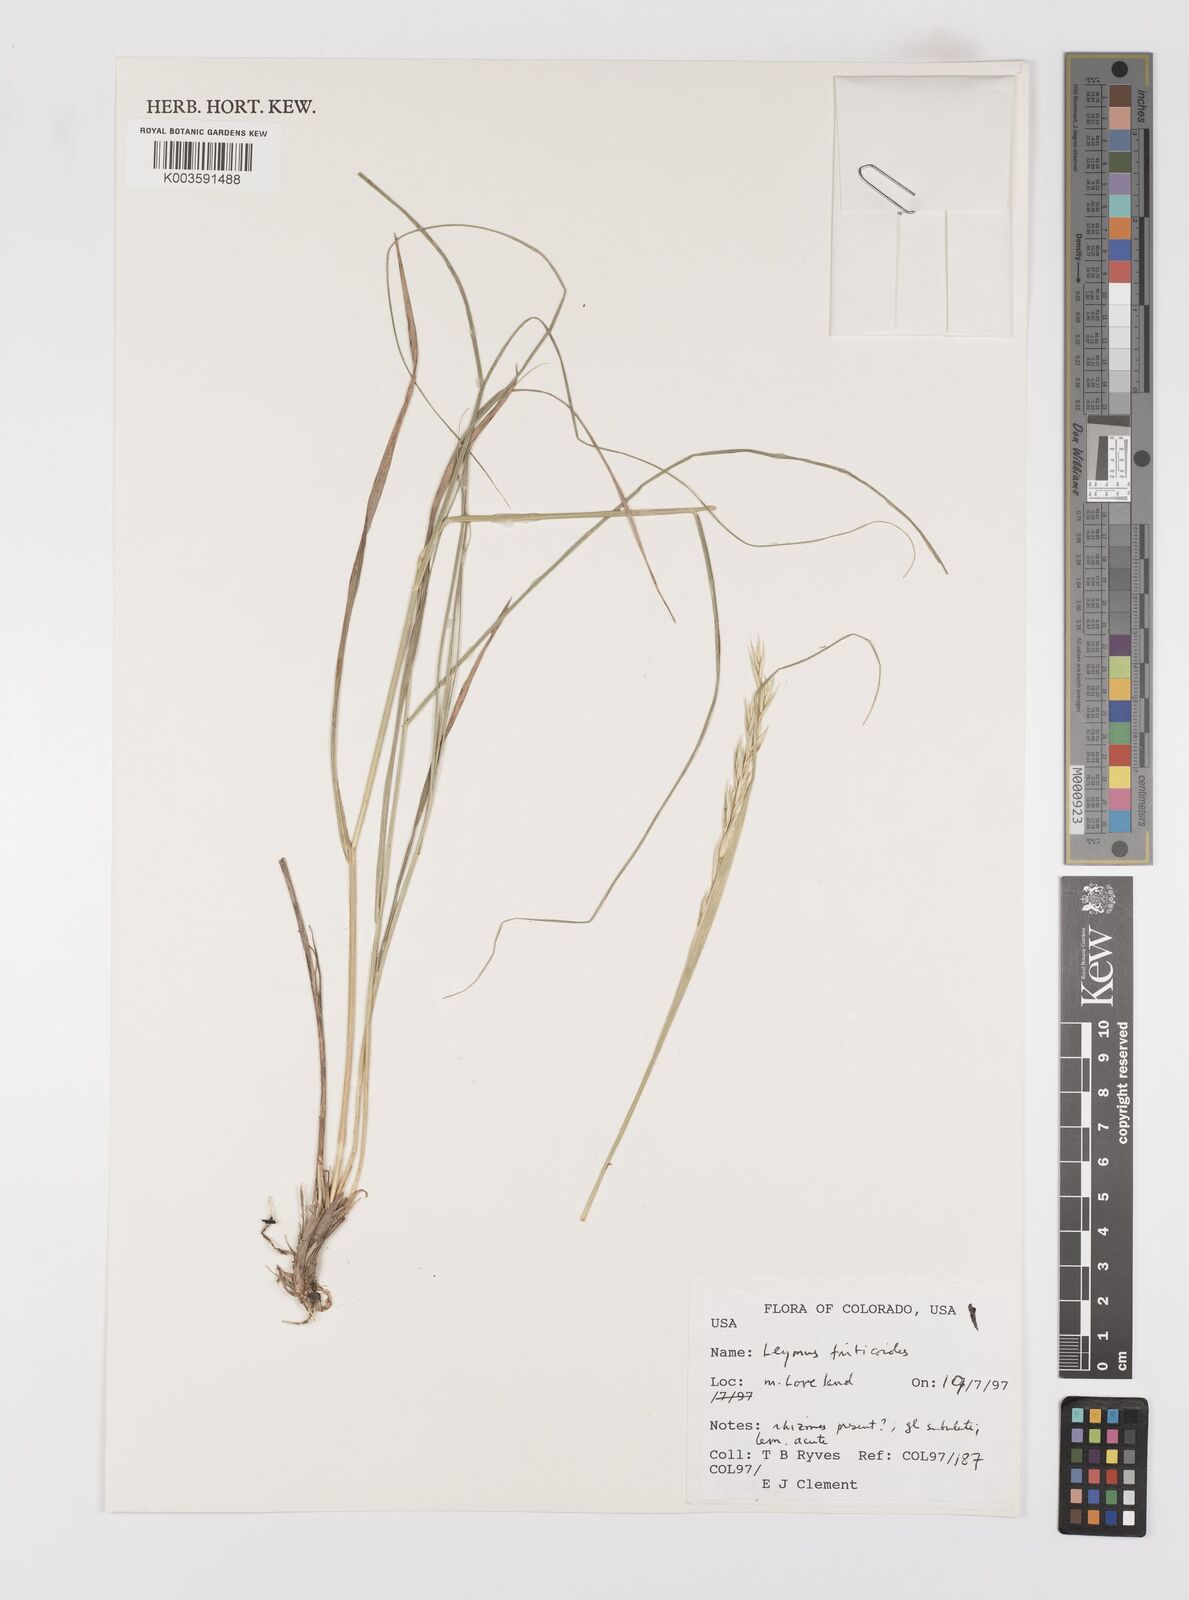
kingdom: Plantae
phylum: Tracheophyta
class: Liliopsida
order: Poales
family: Poaceae
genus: Leymus
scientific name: Leymus triticoides
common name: Beardless wild rye
